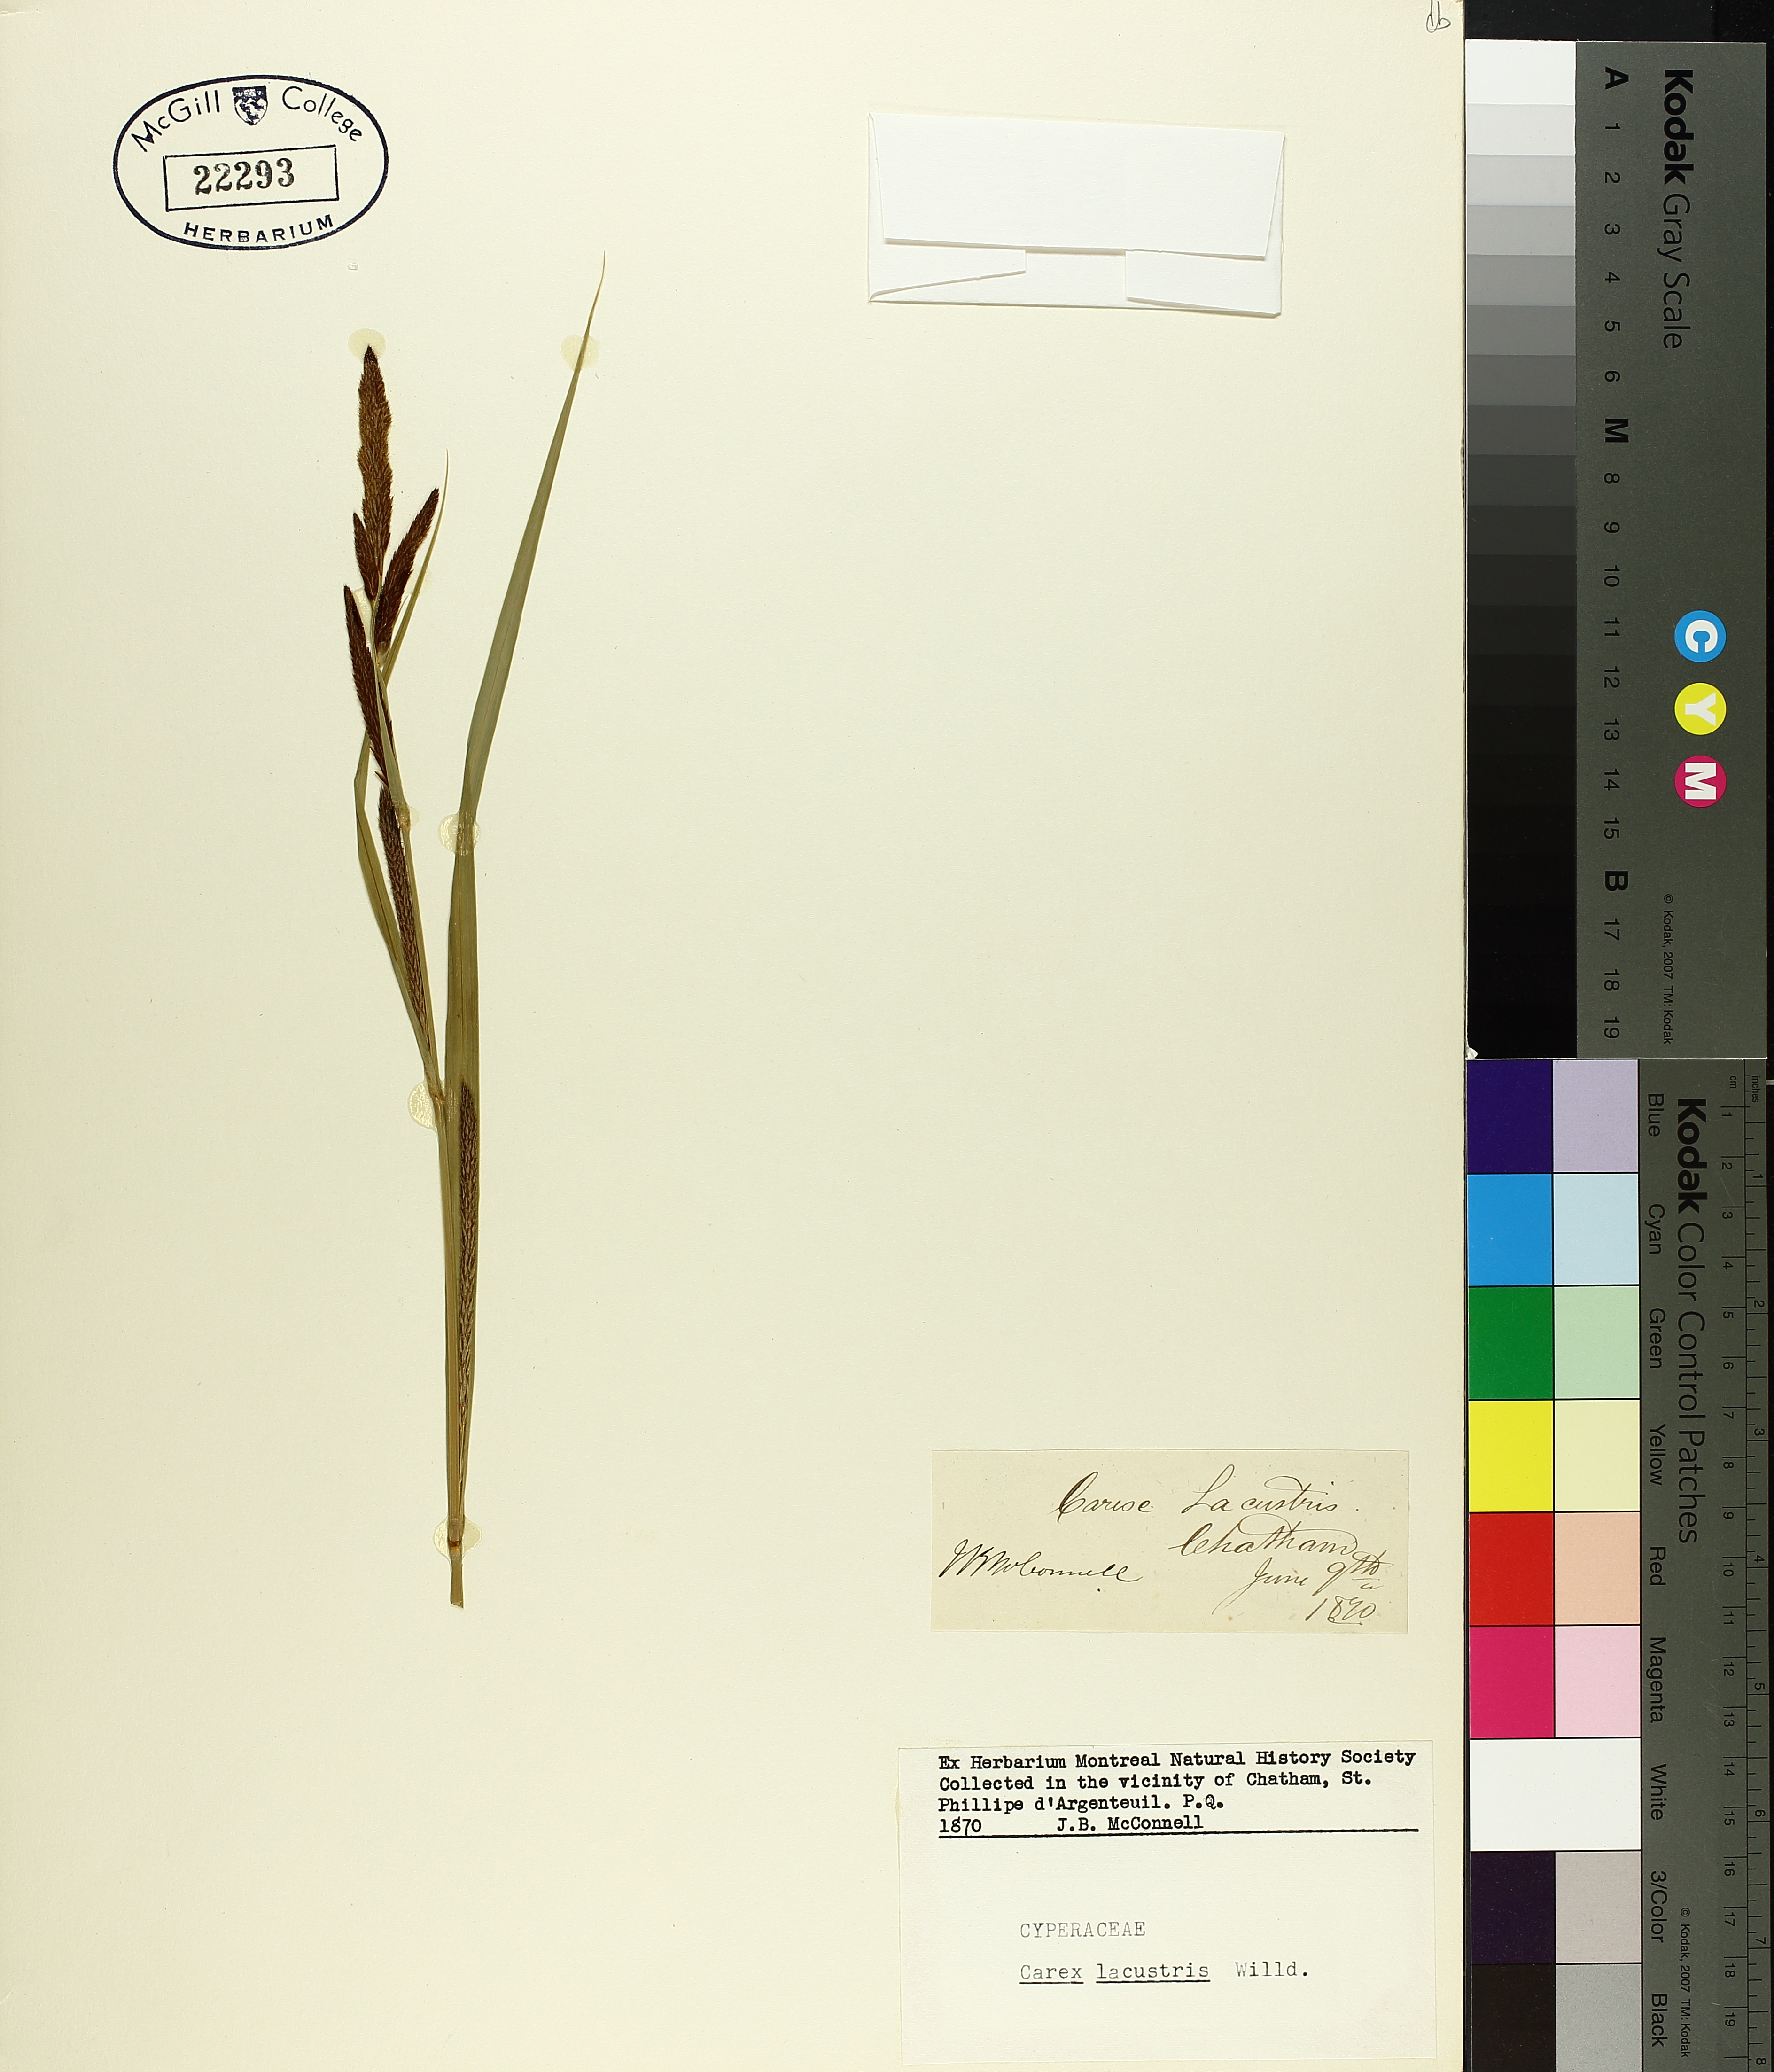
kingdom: Plantae
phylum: Tracheophyta
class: Liliopsida
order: Poales
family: Cyperaceae
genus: Carex
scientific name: Carex lacustris
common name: Common lake sedge
